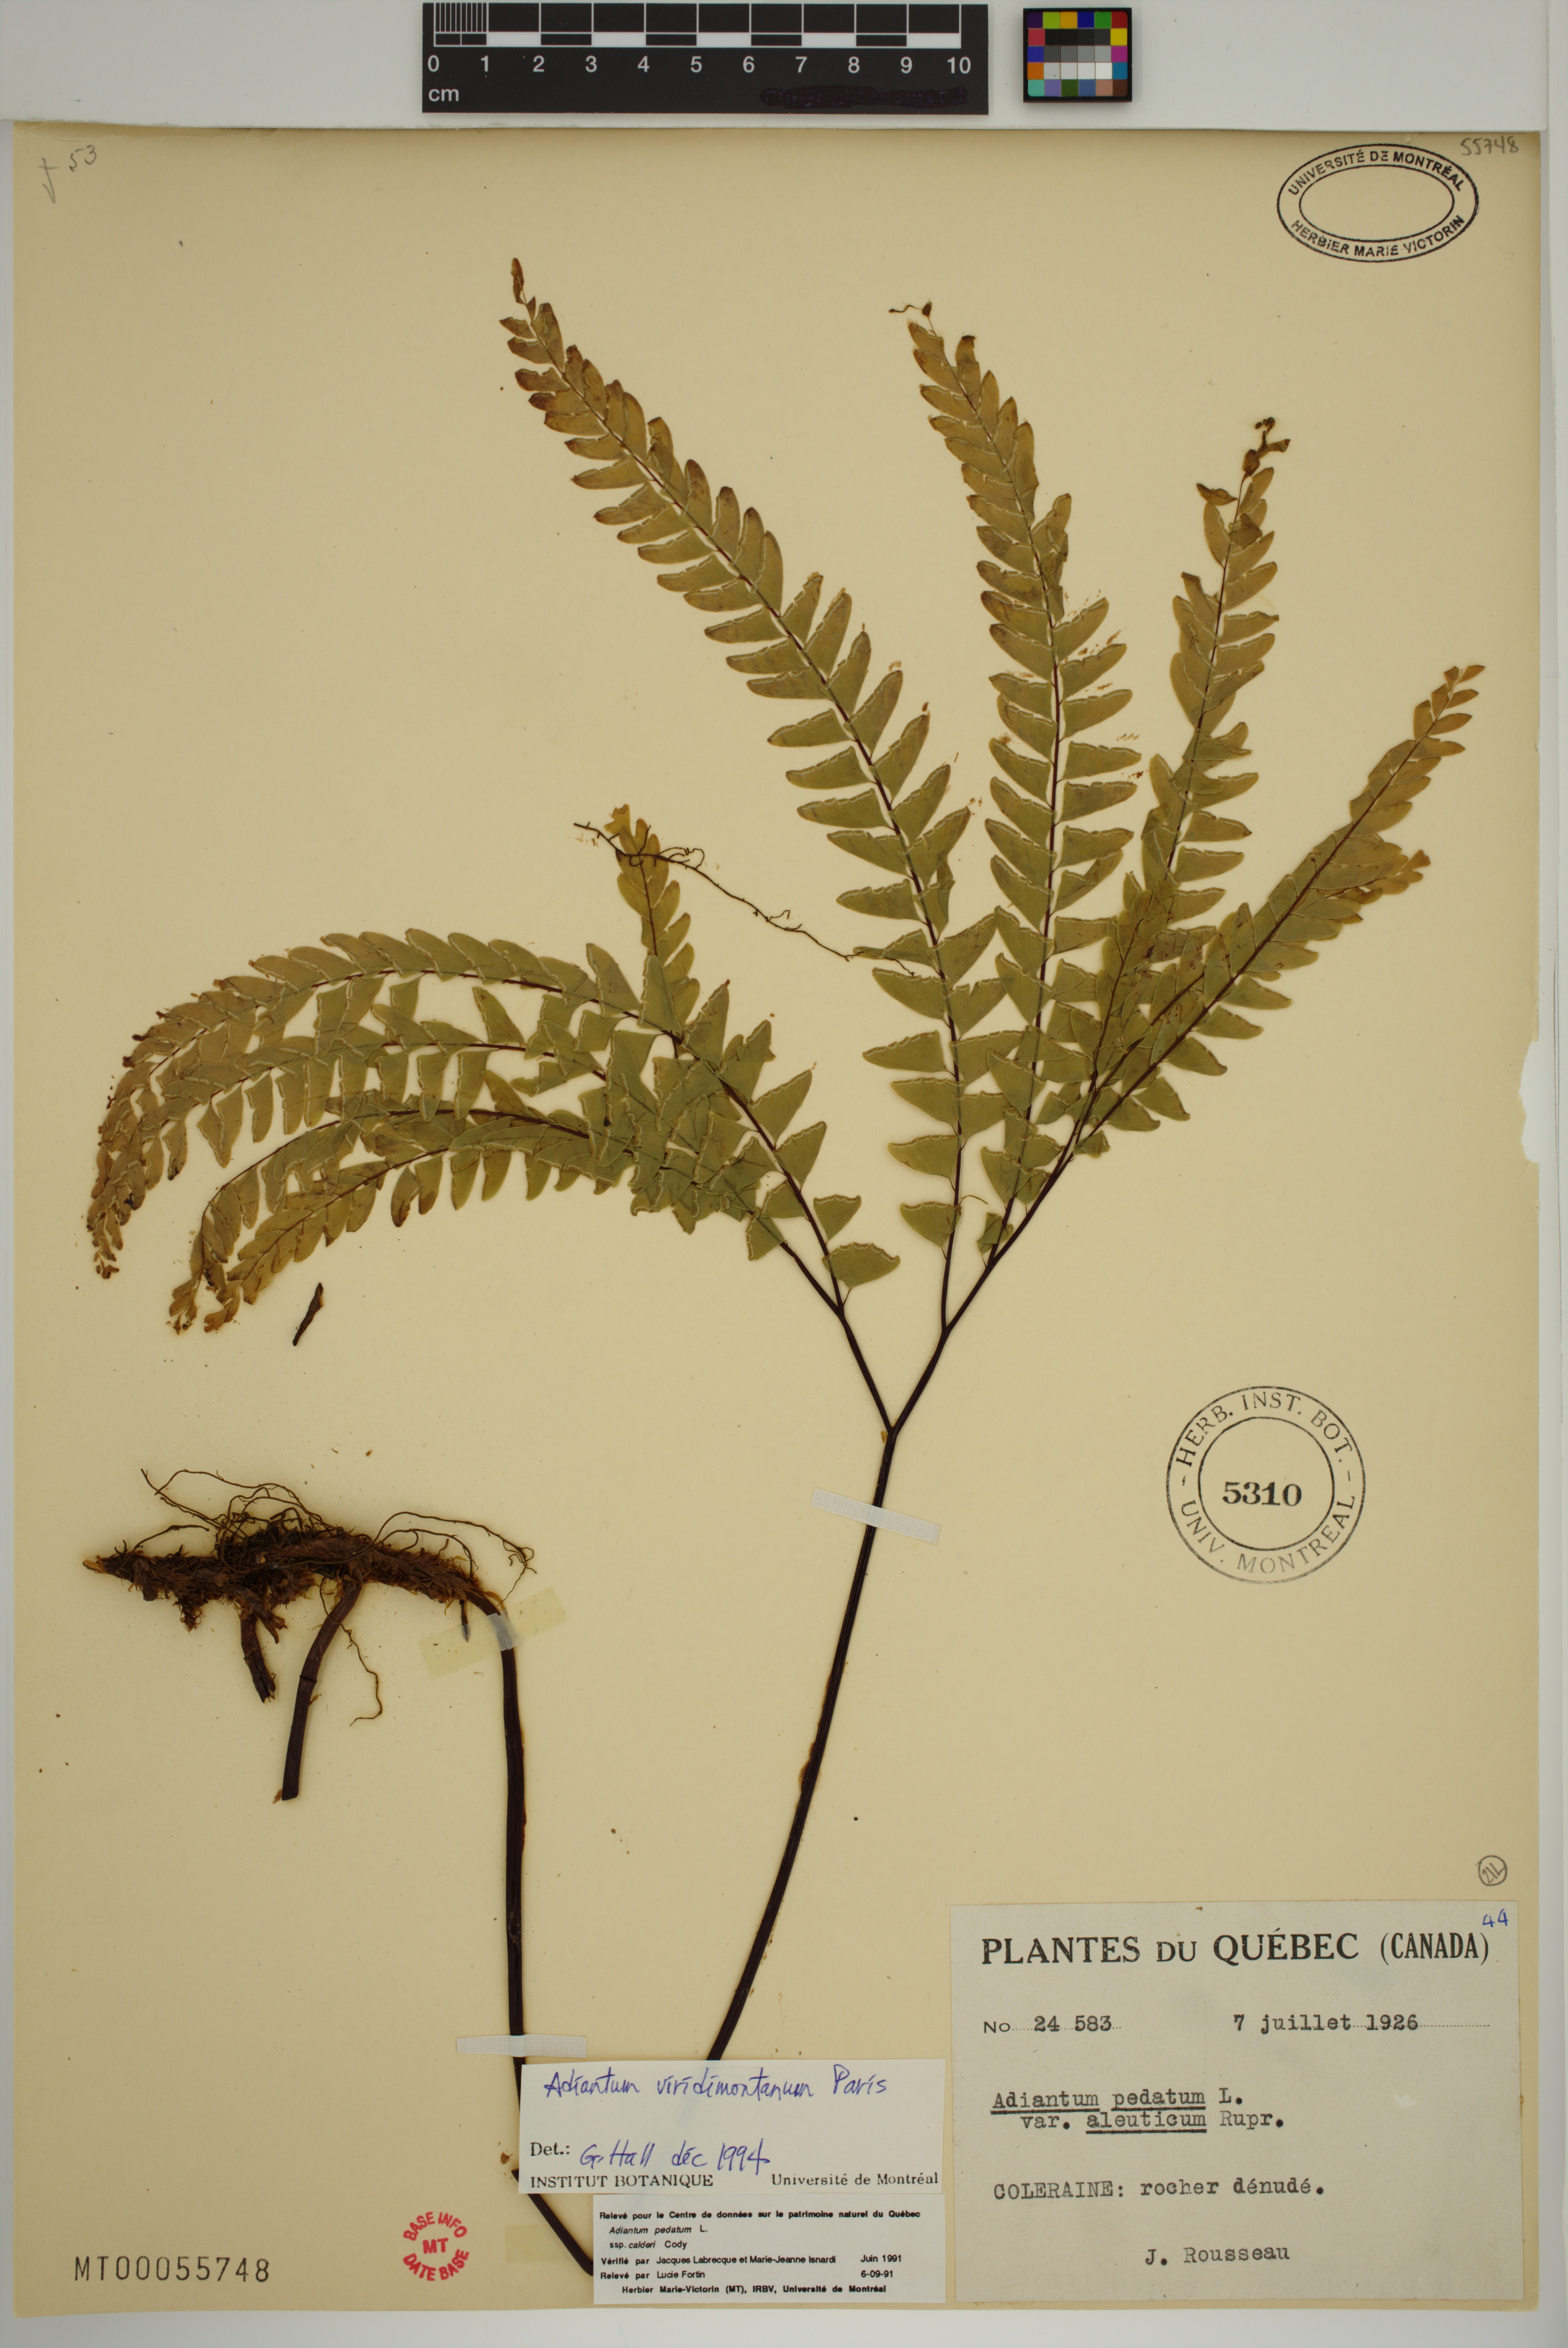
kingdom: Plantae
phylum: Tracheophyta
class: Polypodiopsida
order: Polypodiales
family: Pteridaceae
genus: Adiantum
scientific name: Adiantum viridimontanum
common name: Green mountain maidenhair
